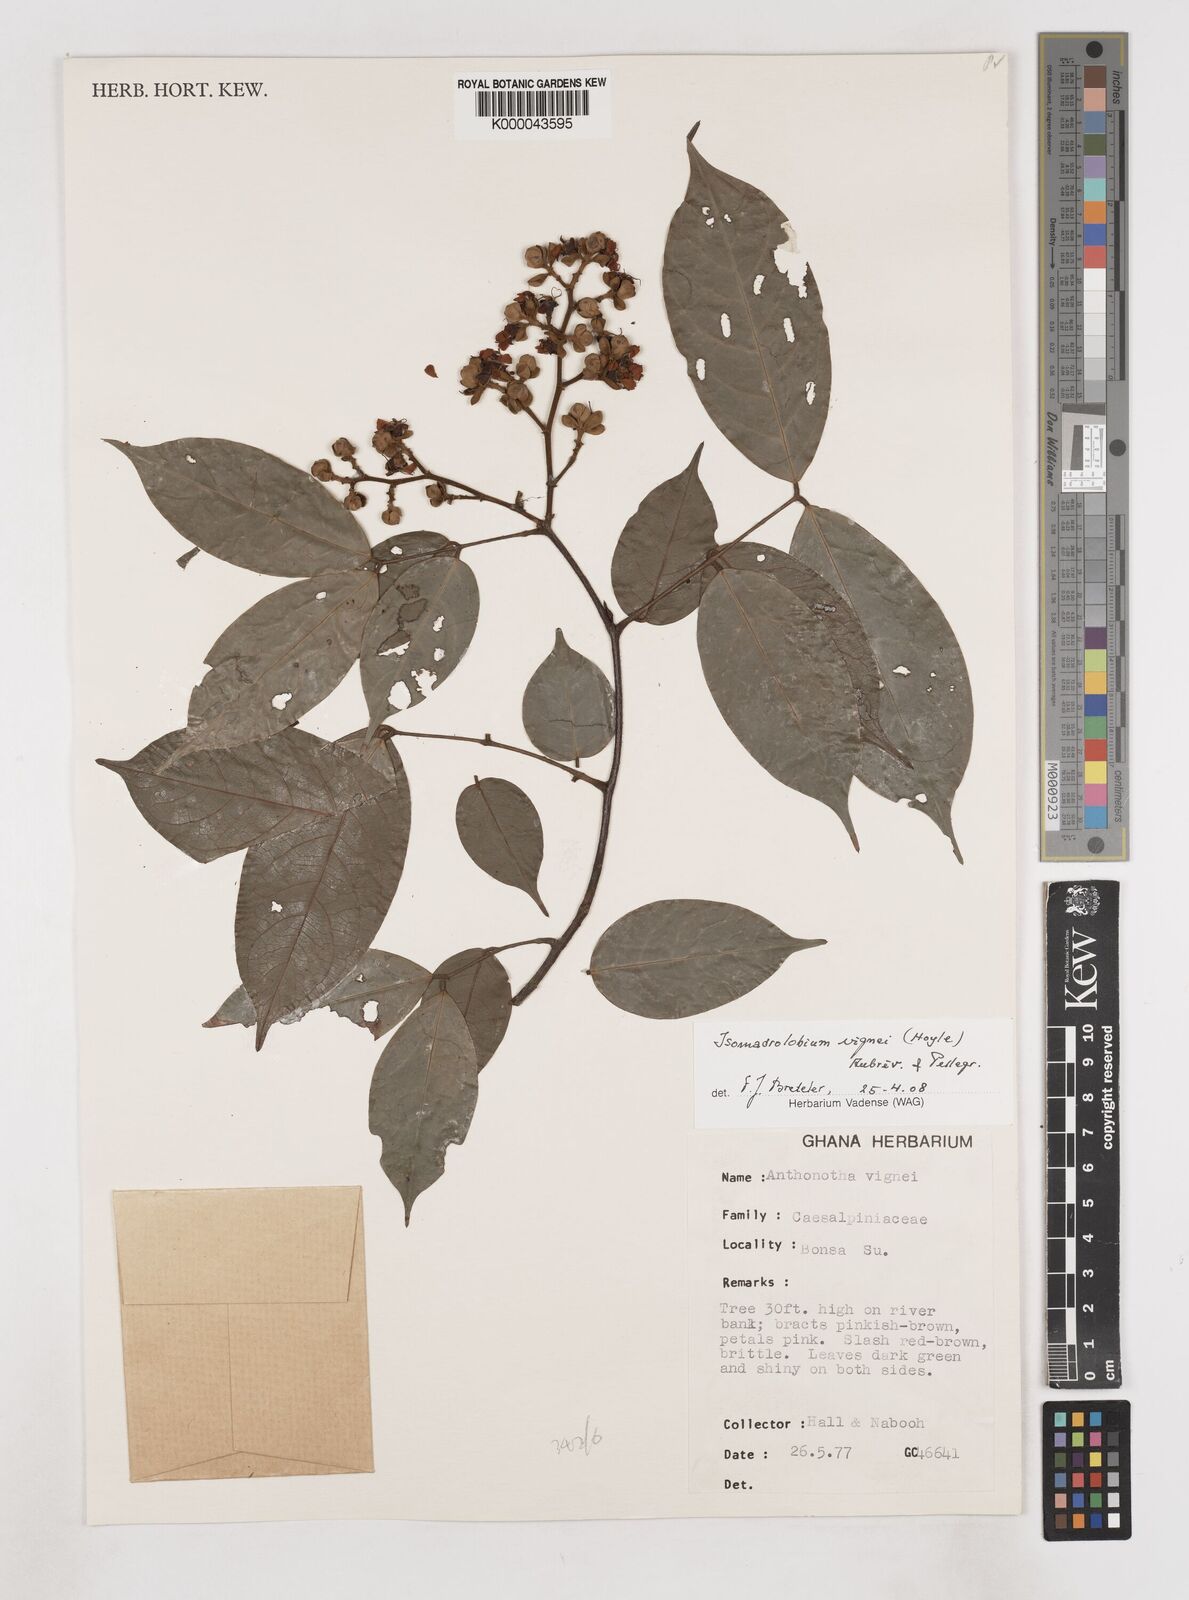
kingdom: Plantae
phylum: Tracheophyta
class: Magnoliopsida
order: Fabales
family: Fabaceae
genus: Englerodendron
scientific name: Englerodendron vignei
